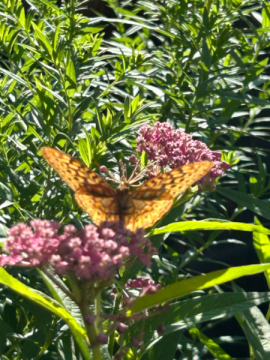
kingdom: Animalia
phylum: Arthropoda
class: Insecta
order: Lepidoptera
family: Nymphalidae
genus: Speyeria
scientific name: Speyeria cybele
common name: Great Spangled Fritillary
